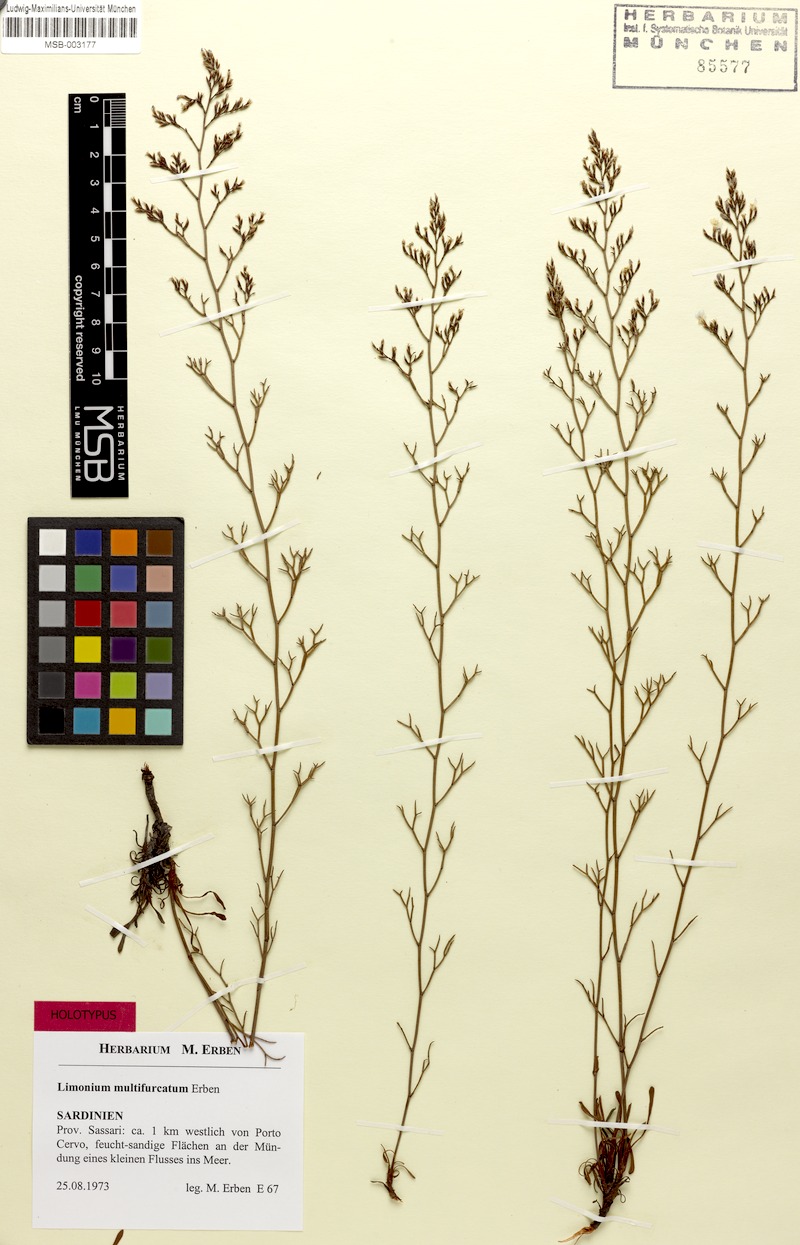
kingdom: Plantae
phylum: Tracheophyta
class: Magnoliopsida
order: Caryophyllales
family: Plumbaginaceae
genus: Limonium
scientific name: Limonium multifurcatum
